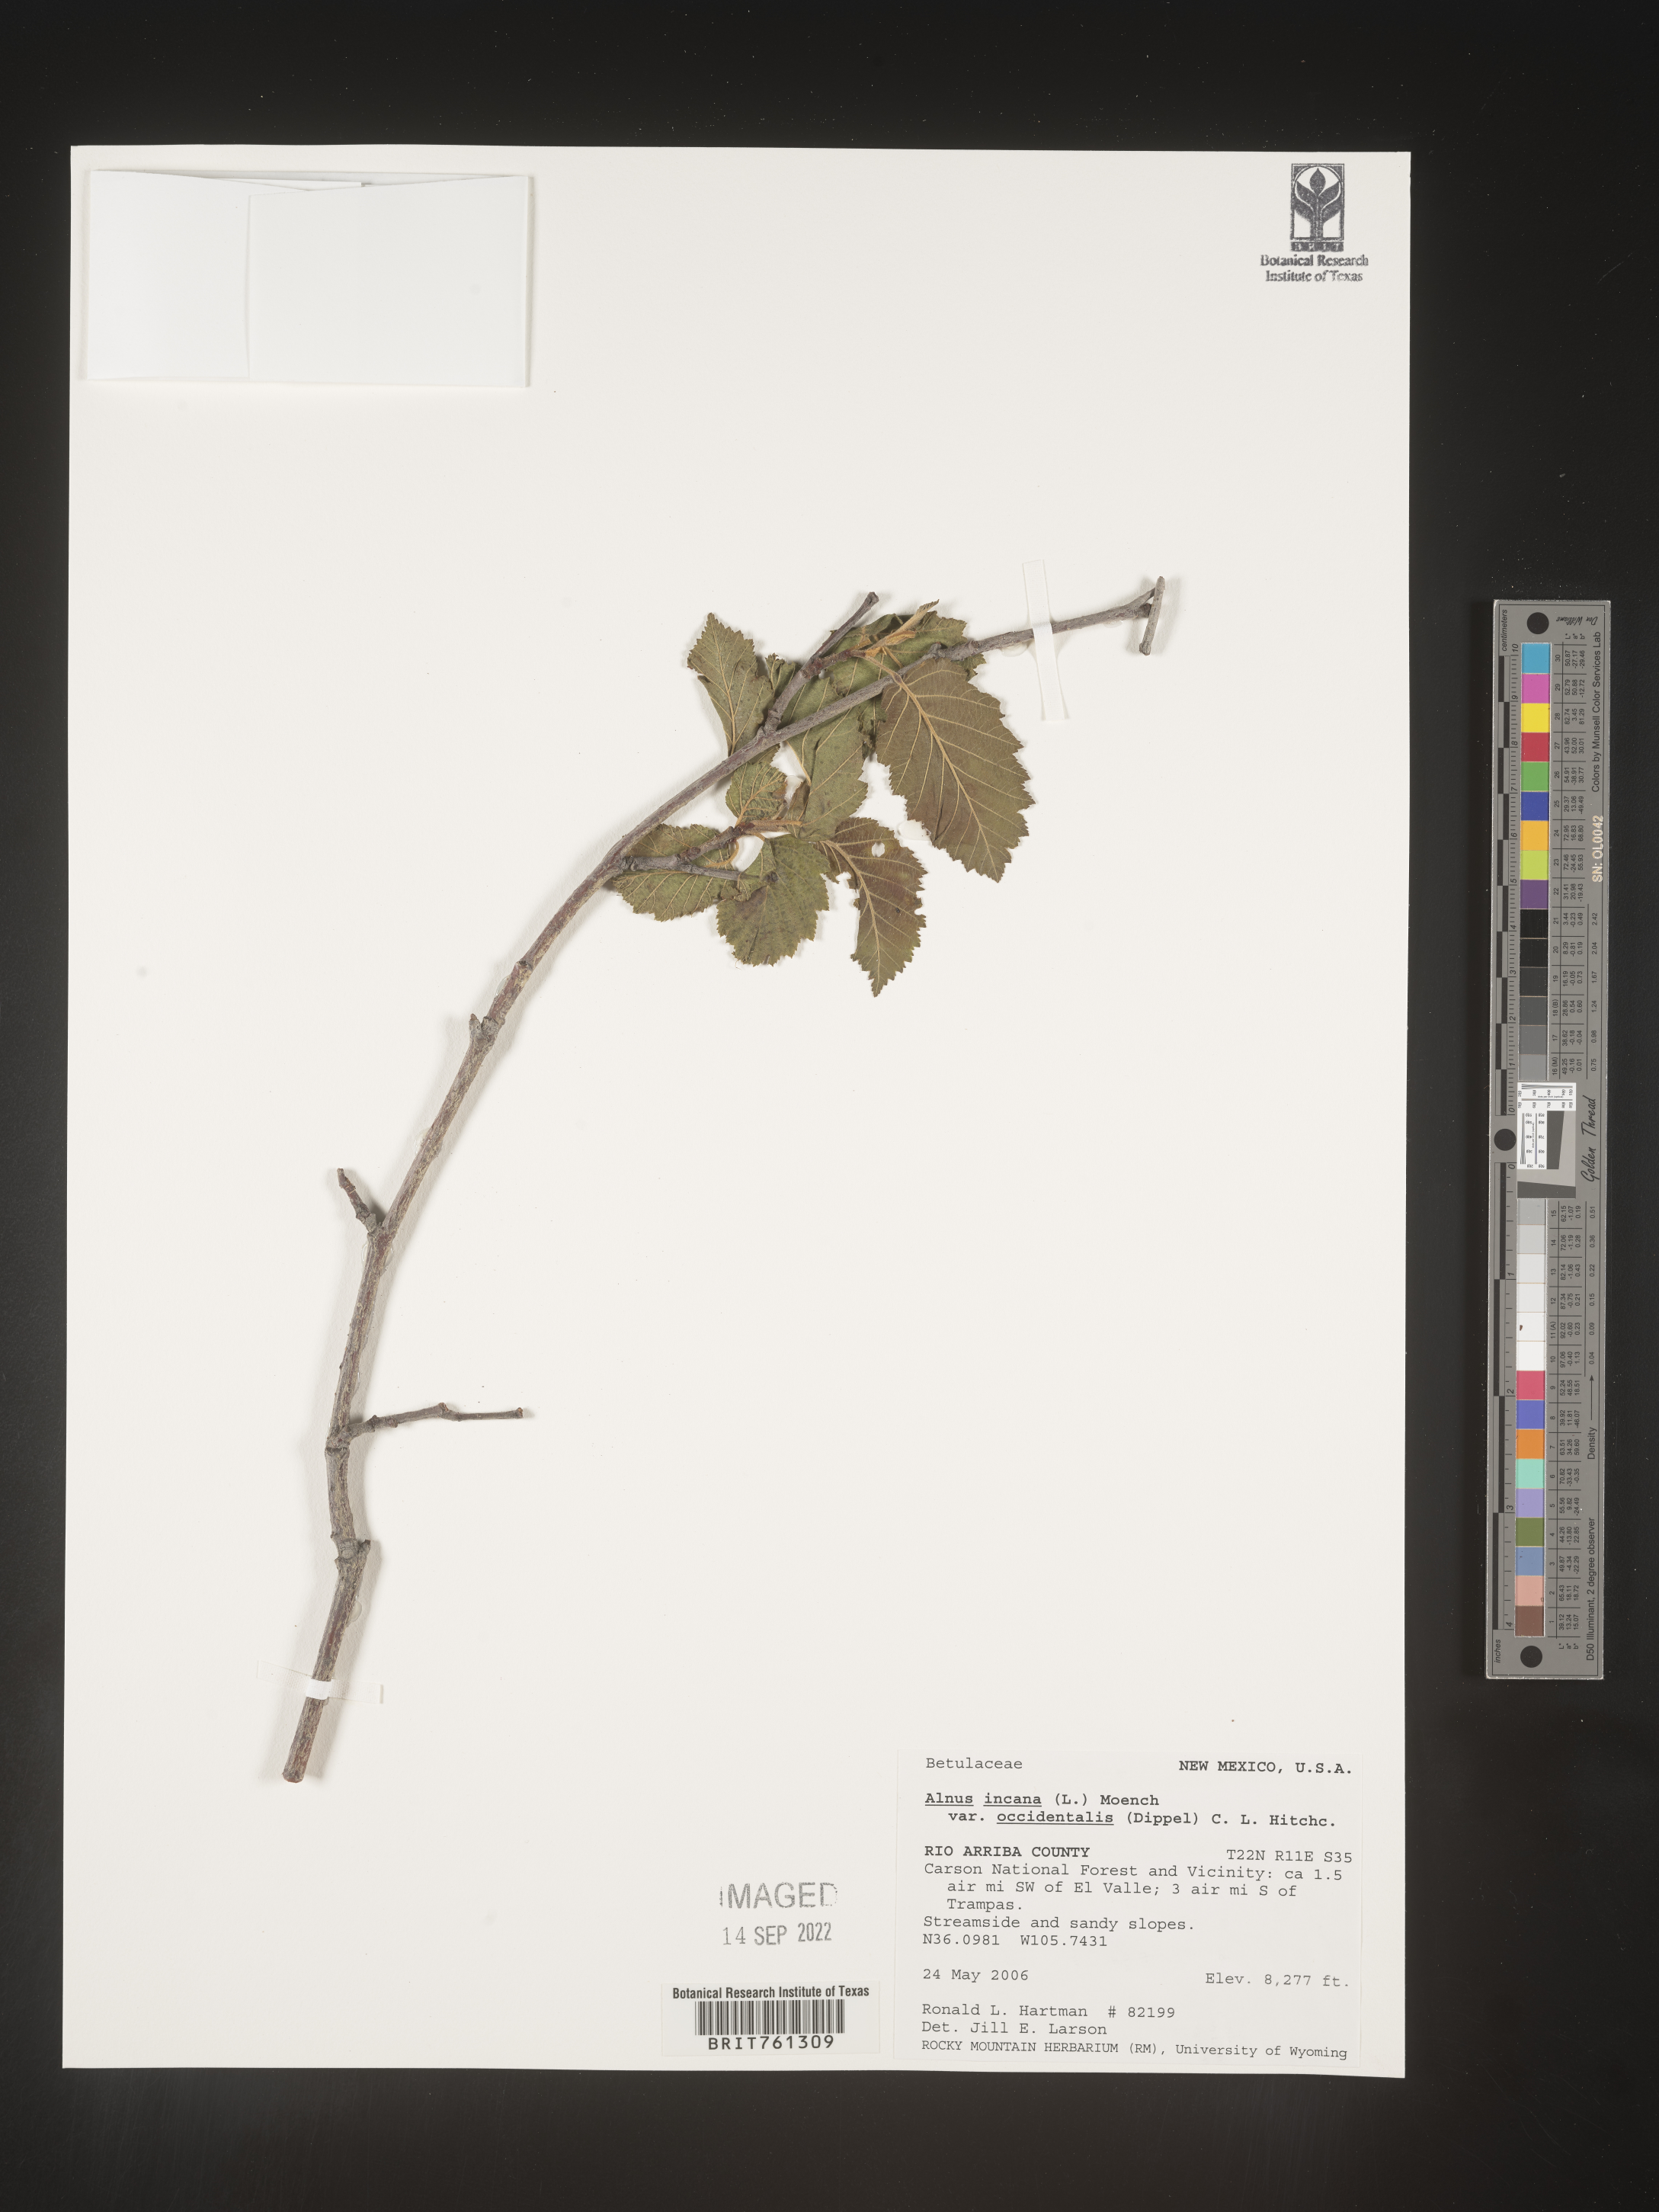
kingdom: Plantae
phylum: Tracheophyta
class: Magnoliopsida
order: Fagales
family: Betulaceae
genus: Alnus
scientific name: Alnus incana
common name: Grey alder
